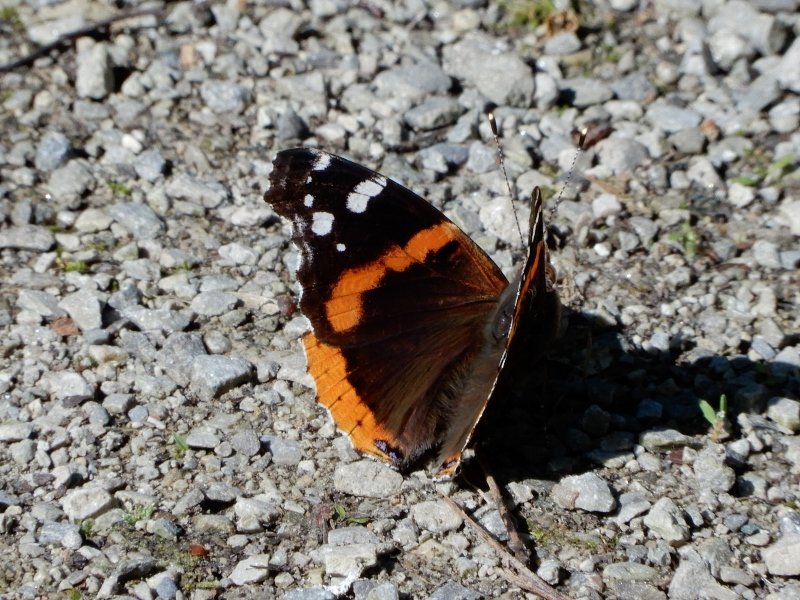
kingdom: Animalia
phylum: Arthropoda
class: Insecta
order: Lepidoptera
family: Nymphalidae
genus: Vanessa
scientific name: Vanessa atalanta
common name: Red Admiral
